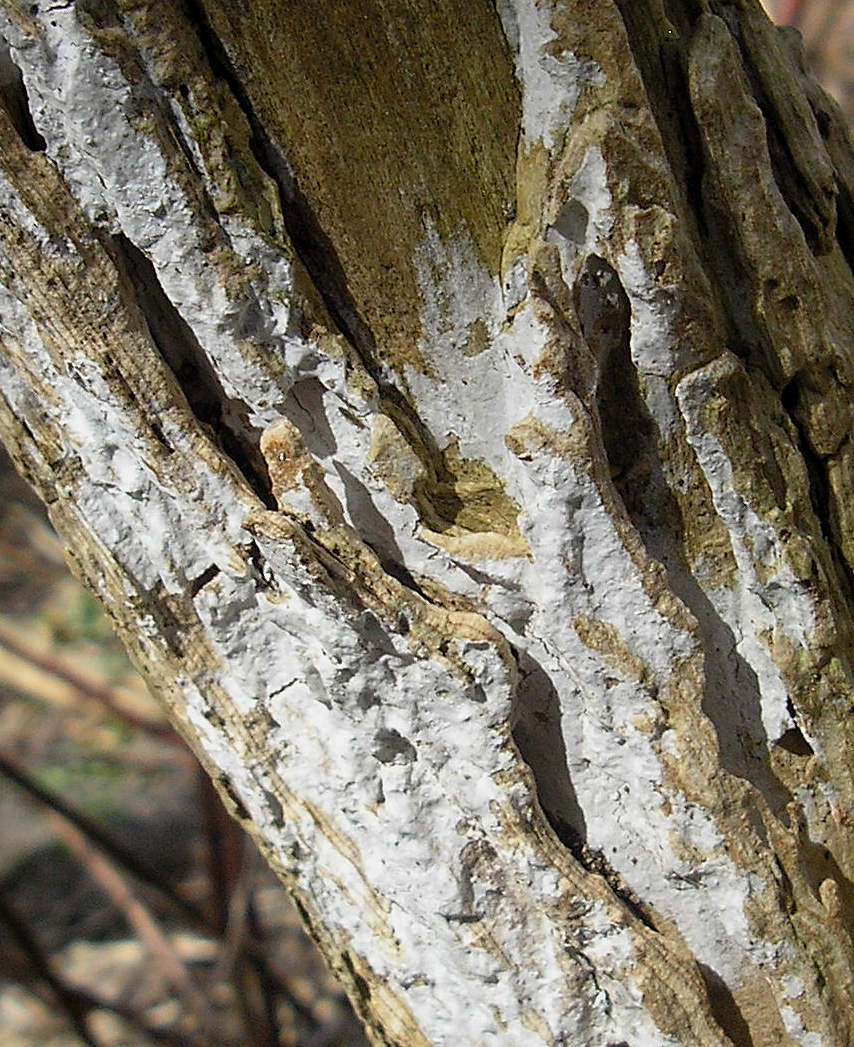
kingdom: Fungi
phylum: Basidiomycota
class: Agaricomycetes
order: Corticiales
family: Corticiaceae
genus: Lyomyces
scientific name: Lyomyces sambuci
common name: almindelig hyldehinde
